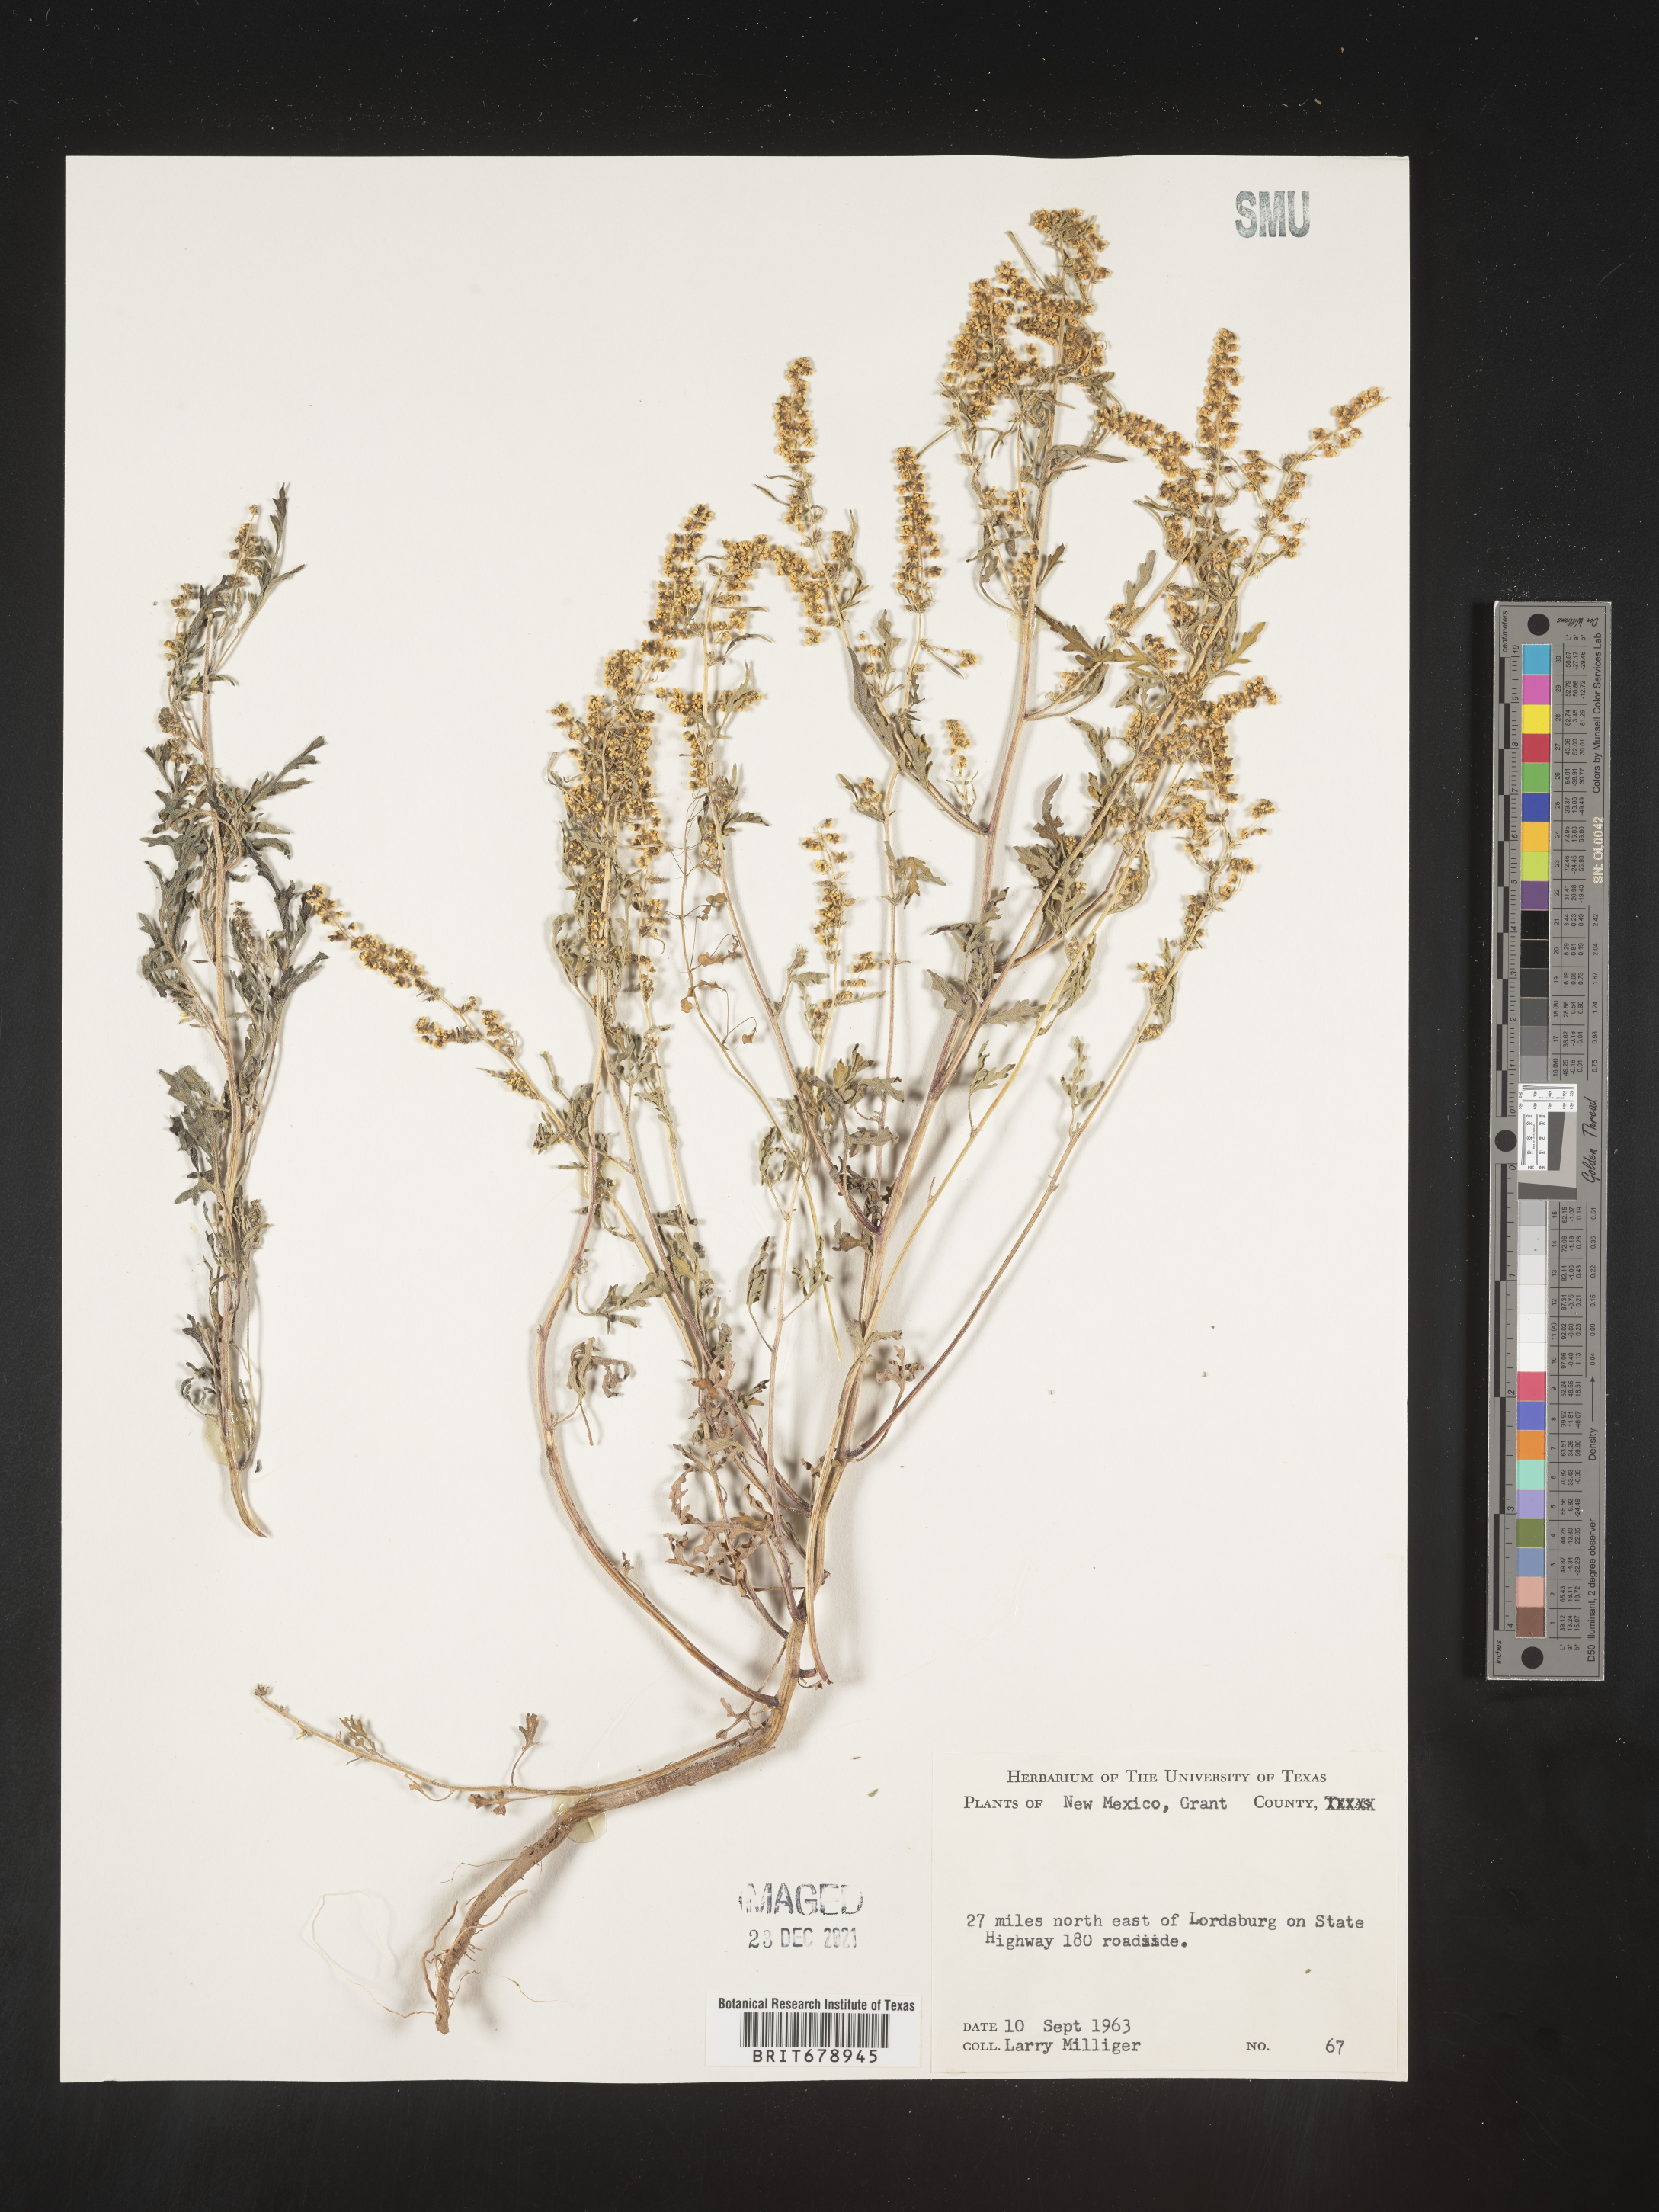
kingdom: Plantae
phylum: Tracheophyta
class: Magnoliopsida
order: Asterales
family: Asteraceae
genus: Ambrosia
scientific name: Ambrosia confertiflora
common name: Bur ragweed
